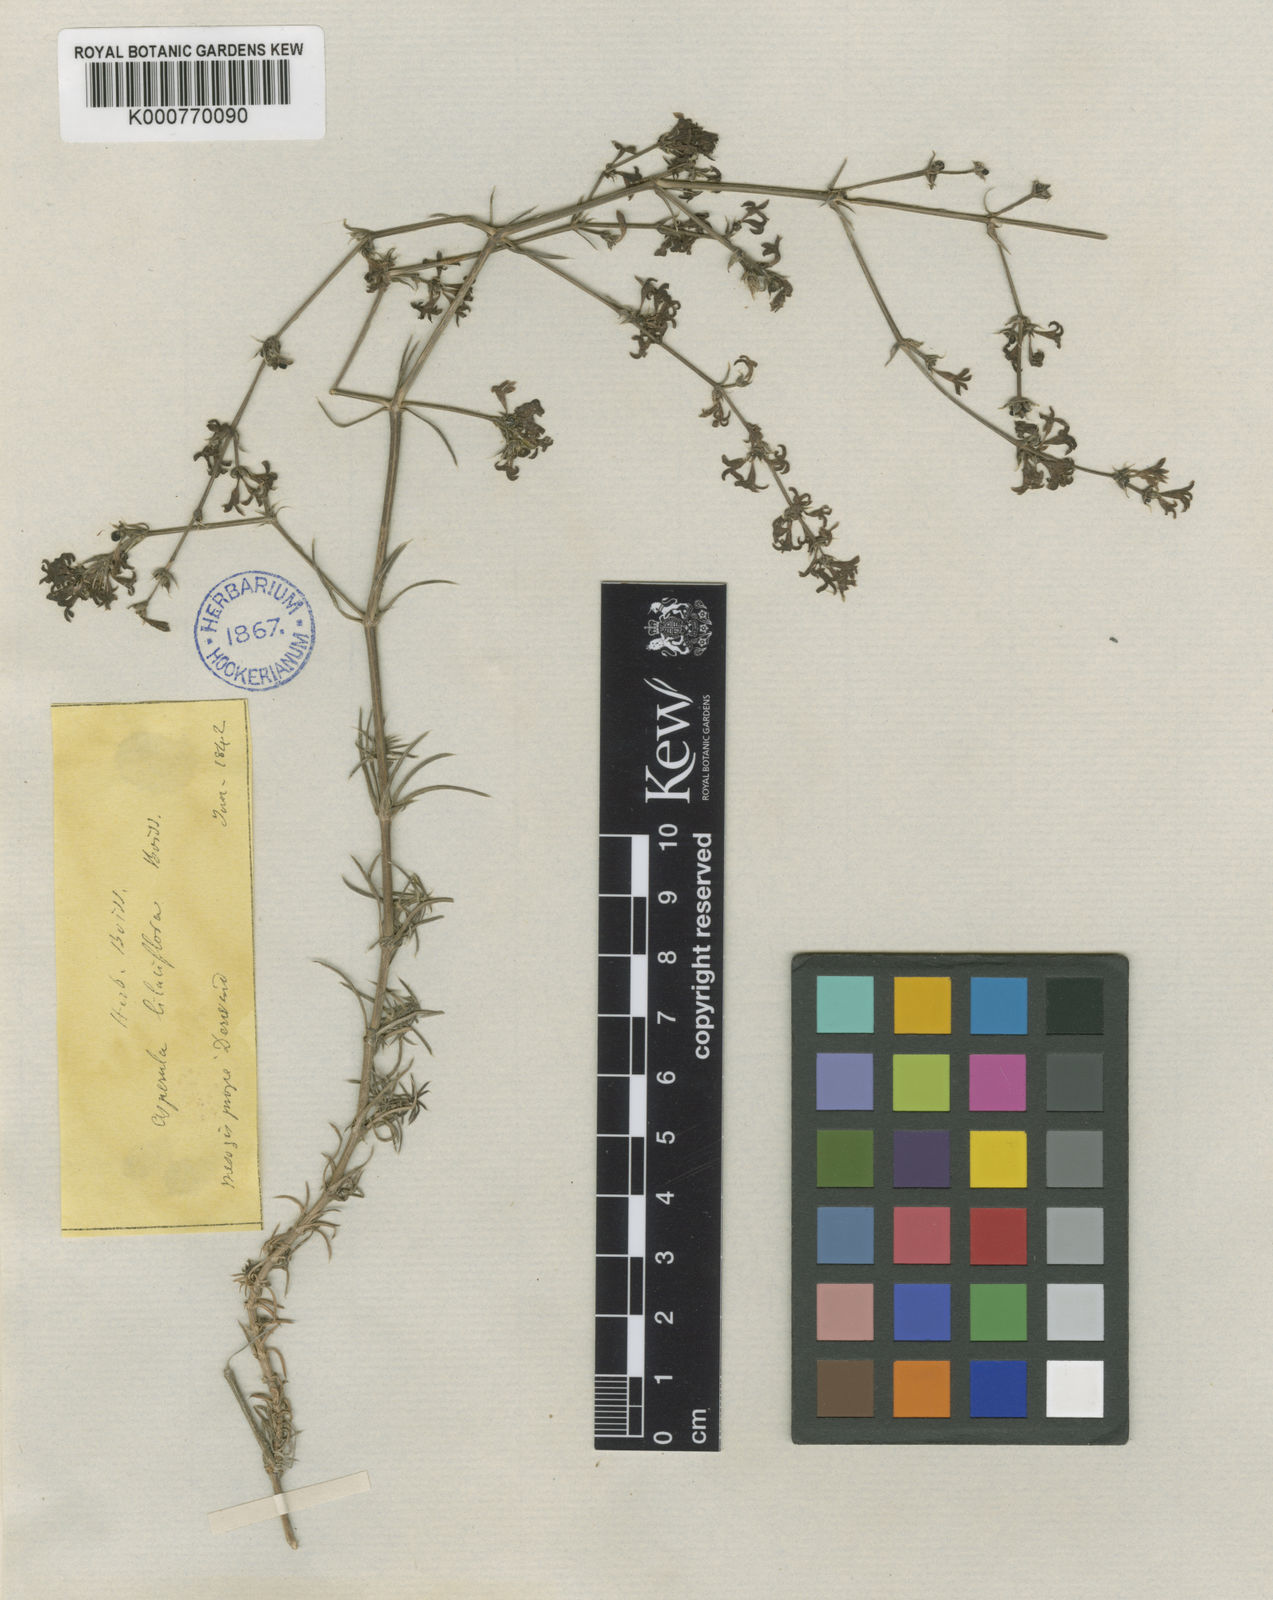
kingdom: Plantae
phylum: Tracheophyta
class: Magnoliopsida
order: Gentianales
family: Rubiaceae
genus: Cynanchica
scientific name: Cynanchica lilaciflora
